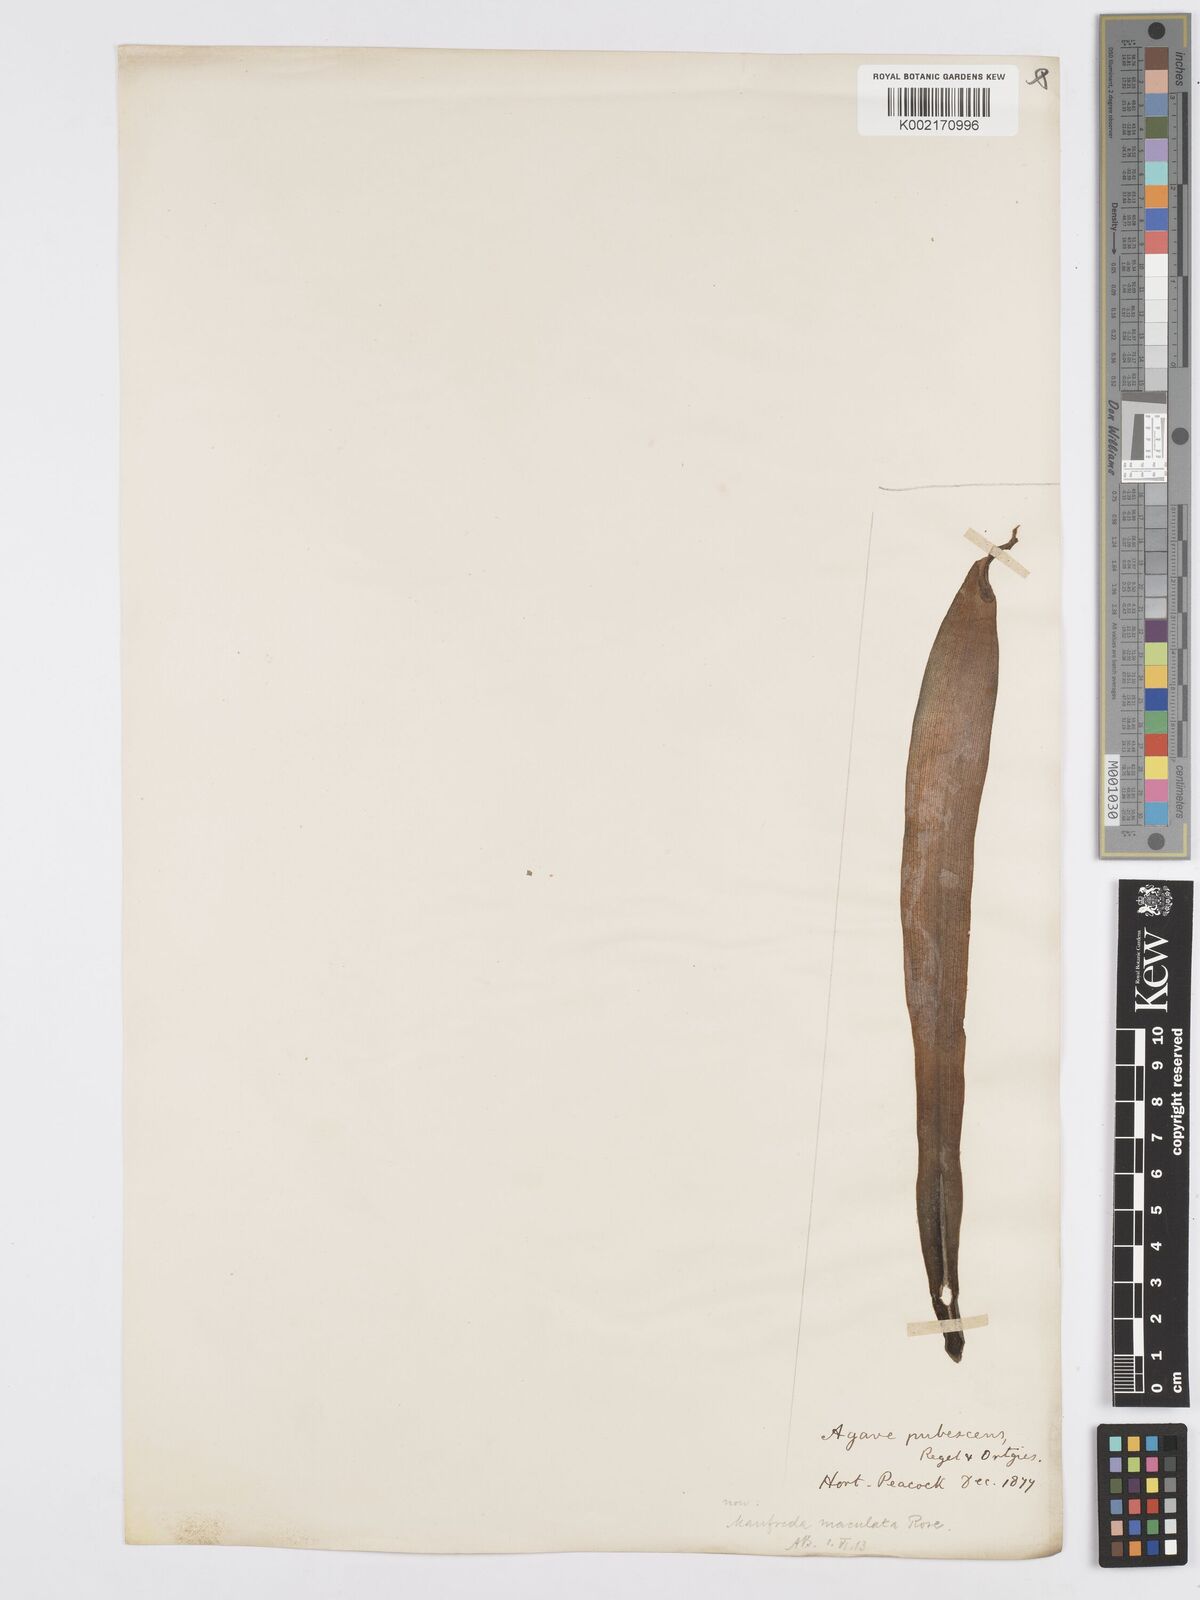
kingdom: Plantae
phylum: Tracheophyta
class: Liliopsida
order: Asparagales
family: Asparagaceae
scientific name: Asparagaceae
